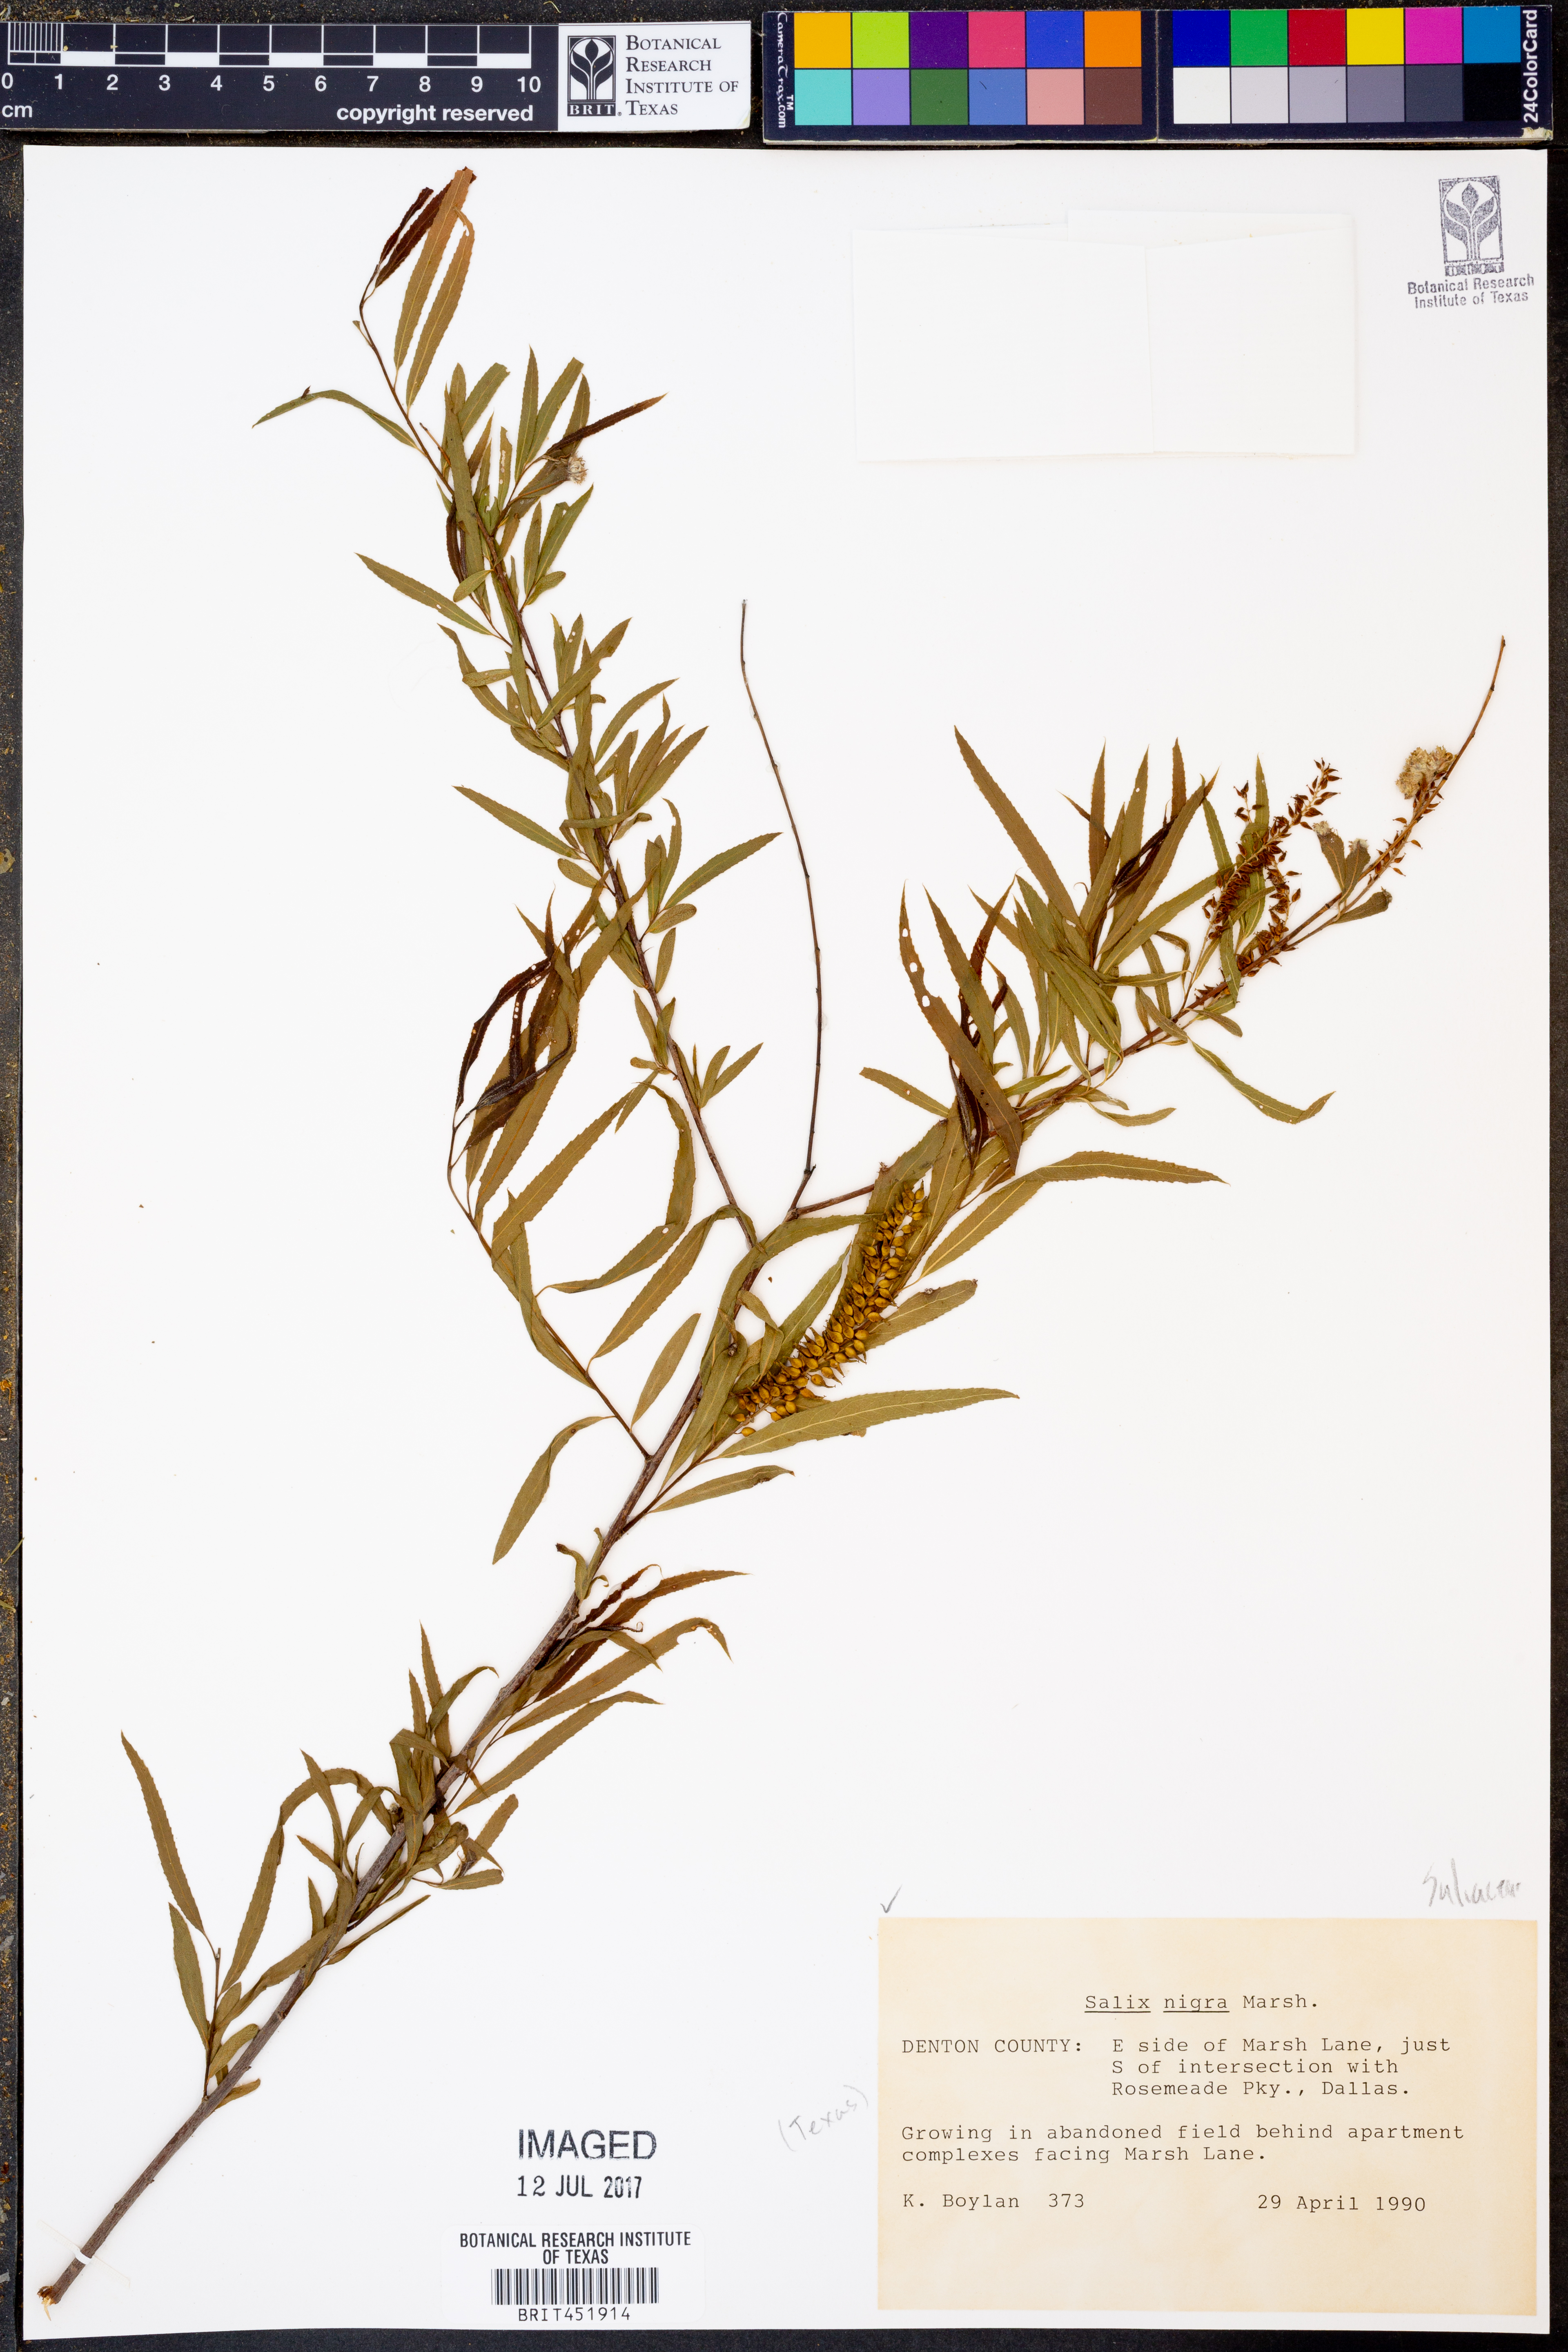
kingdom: Plantae
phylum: Tracheophyta
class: Magnoliopsida
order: Malpighiales
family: Salicaceae
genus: Salix
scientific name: Salix nigra
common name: Black willow
